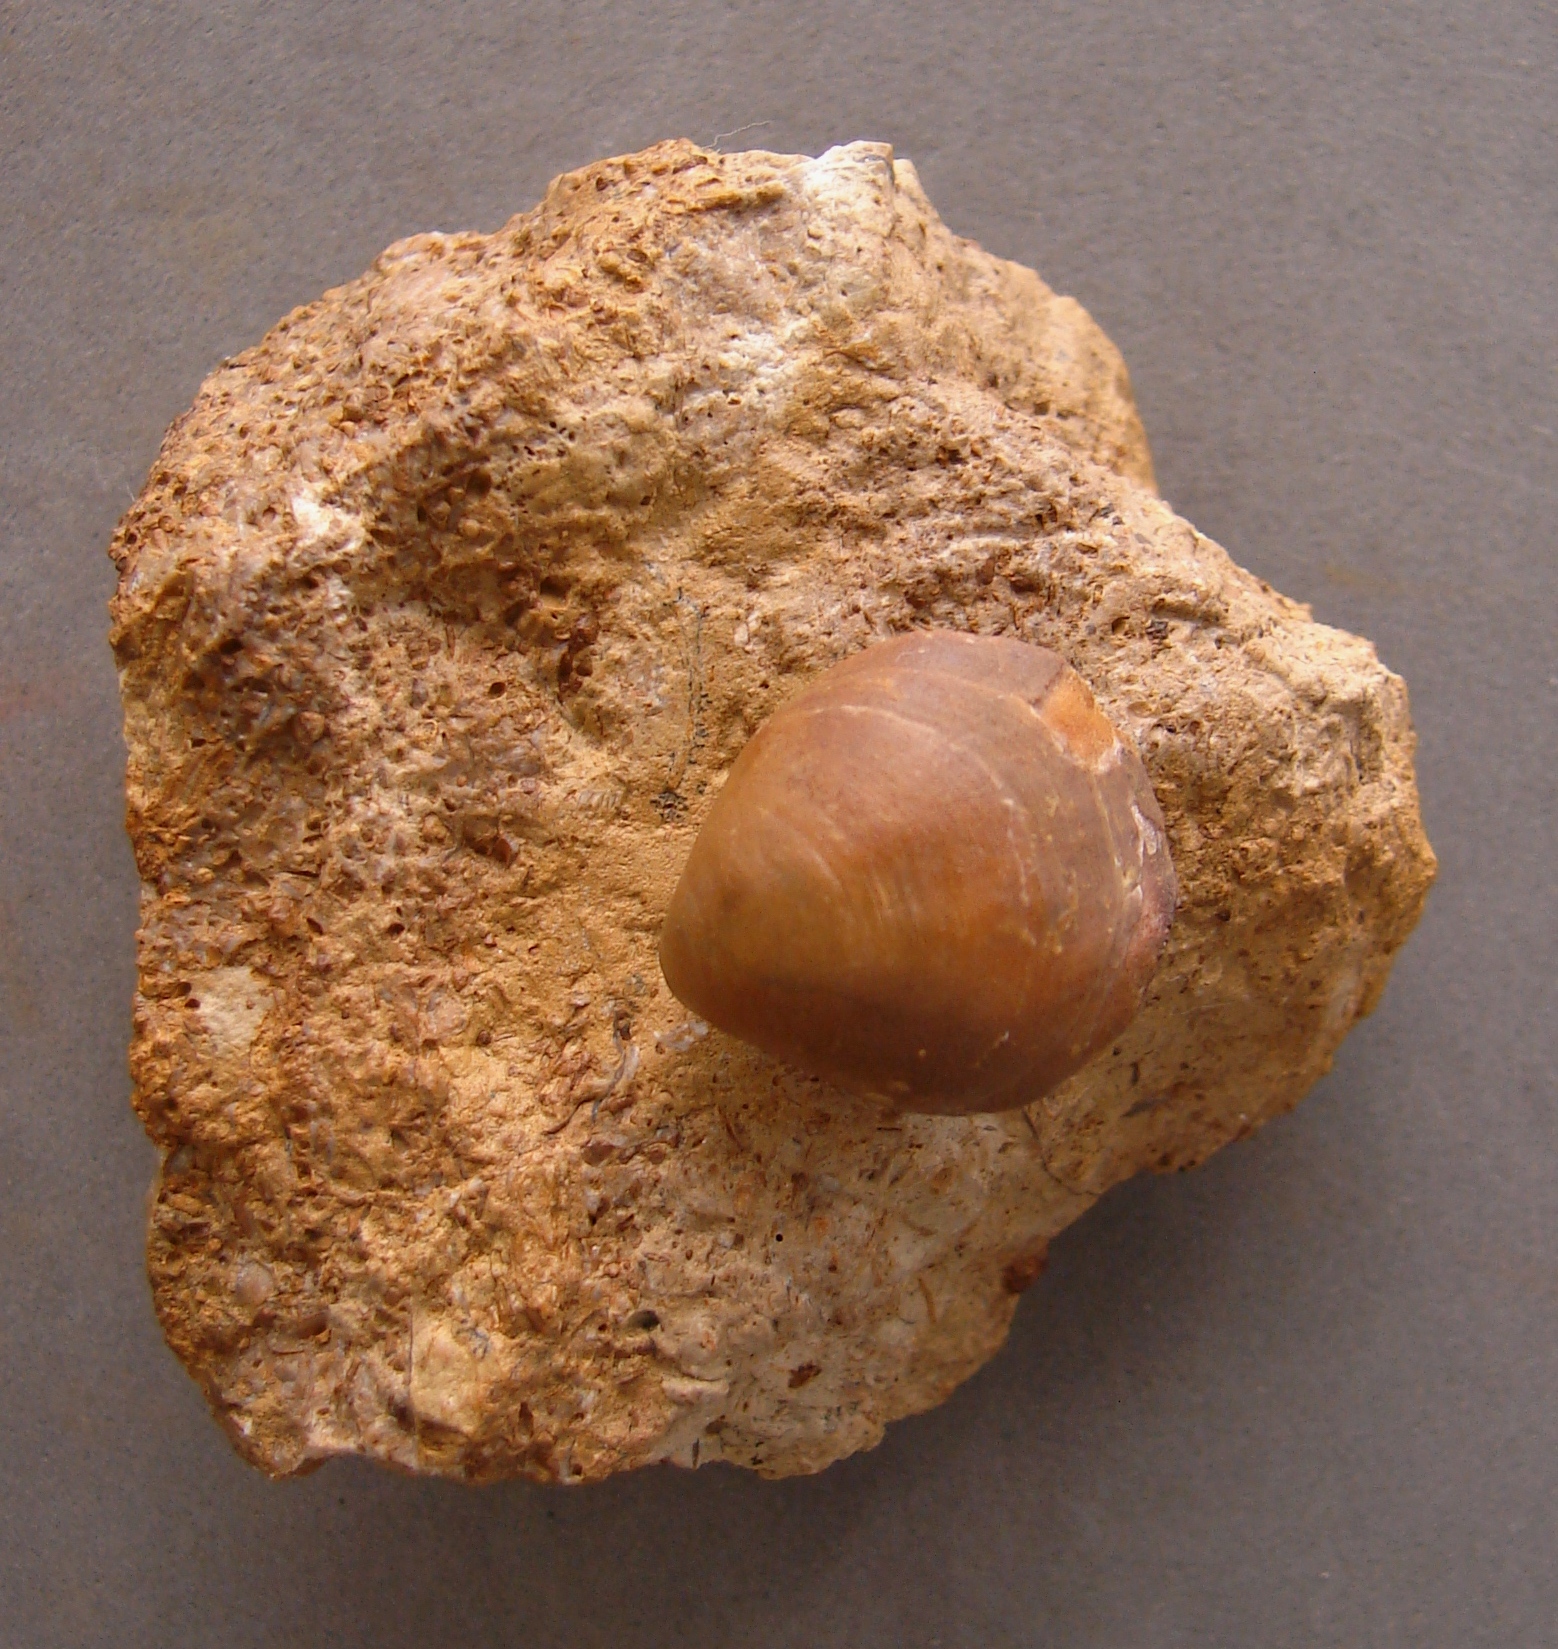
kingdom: Animalia
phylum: Brachiopoda
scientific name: Brachiopoda
